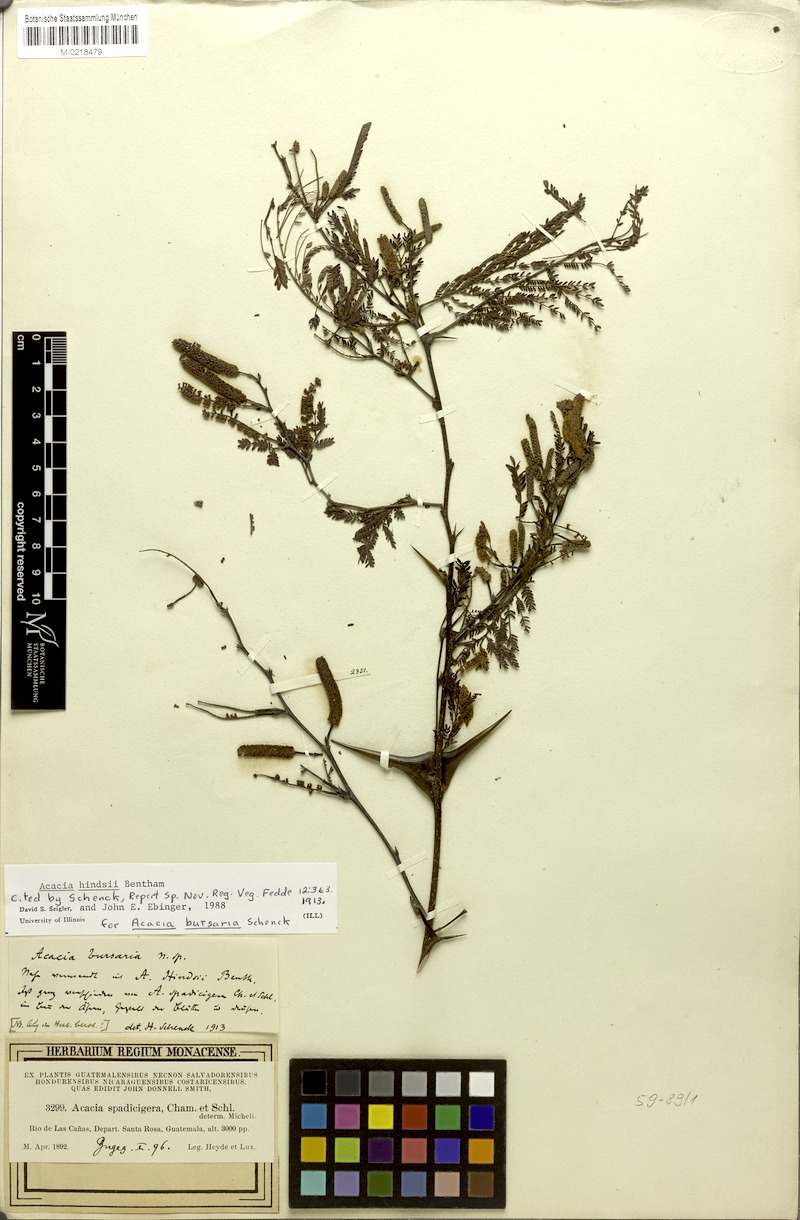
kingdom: Plantae
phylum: Tracheophyta
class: Magnoliopsida
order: Fabales
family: Fabaceae
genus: Vachellia
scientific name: Vachellia hindsii
